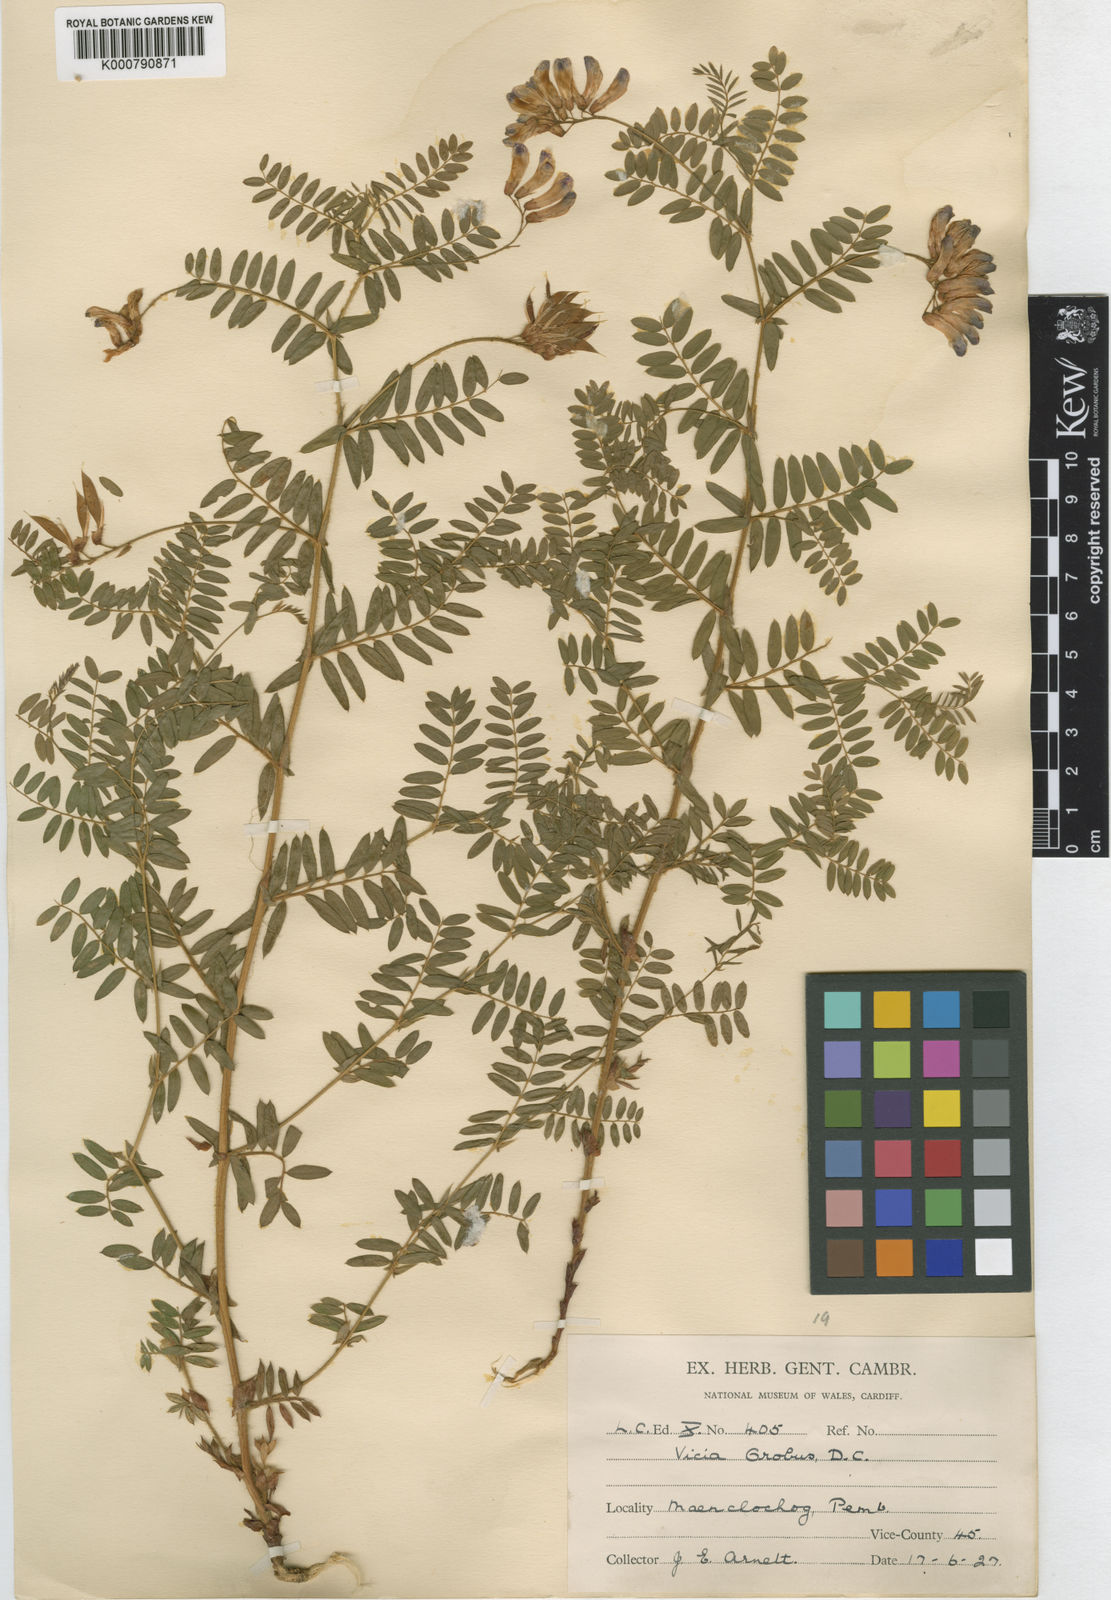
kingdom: Plantae
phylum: Tracheophyta
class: Magnoliopsida
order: Fabales
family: Fabaceae
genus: Vicia
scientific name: Vicia orobus
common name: Wood bitter-vetch
